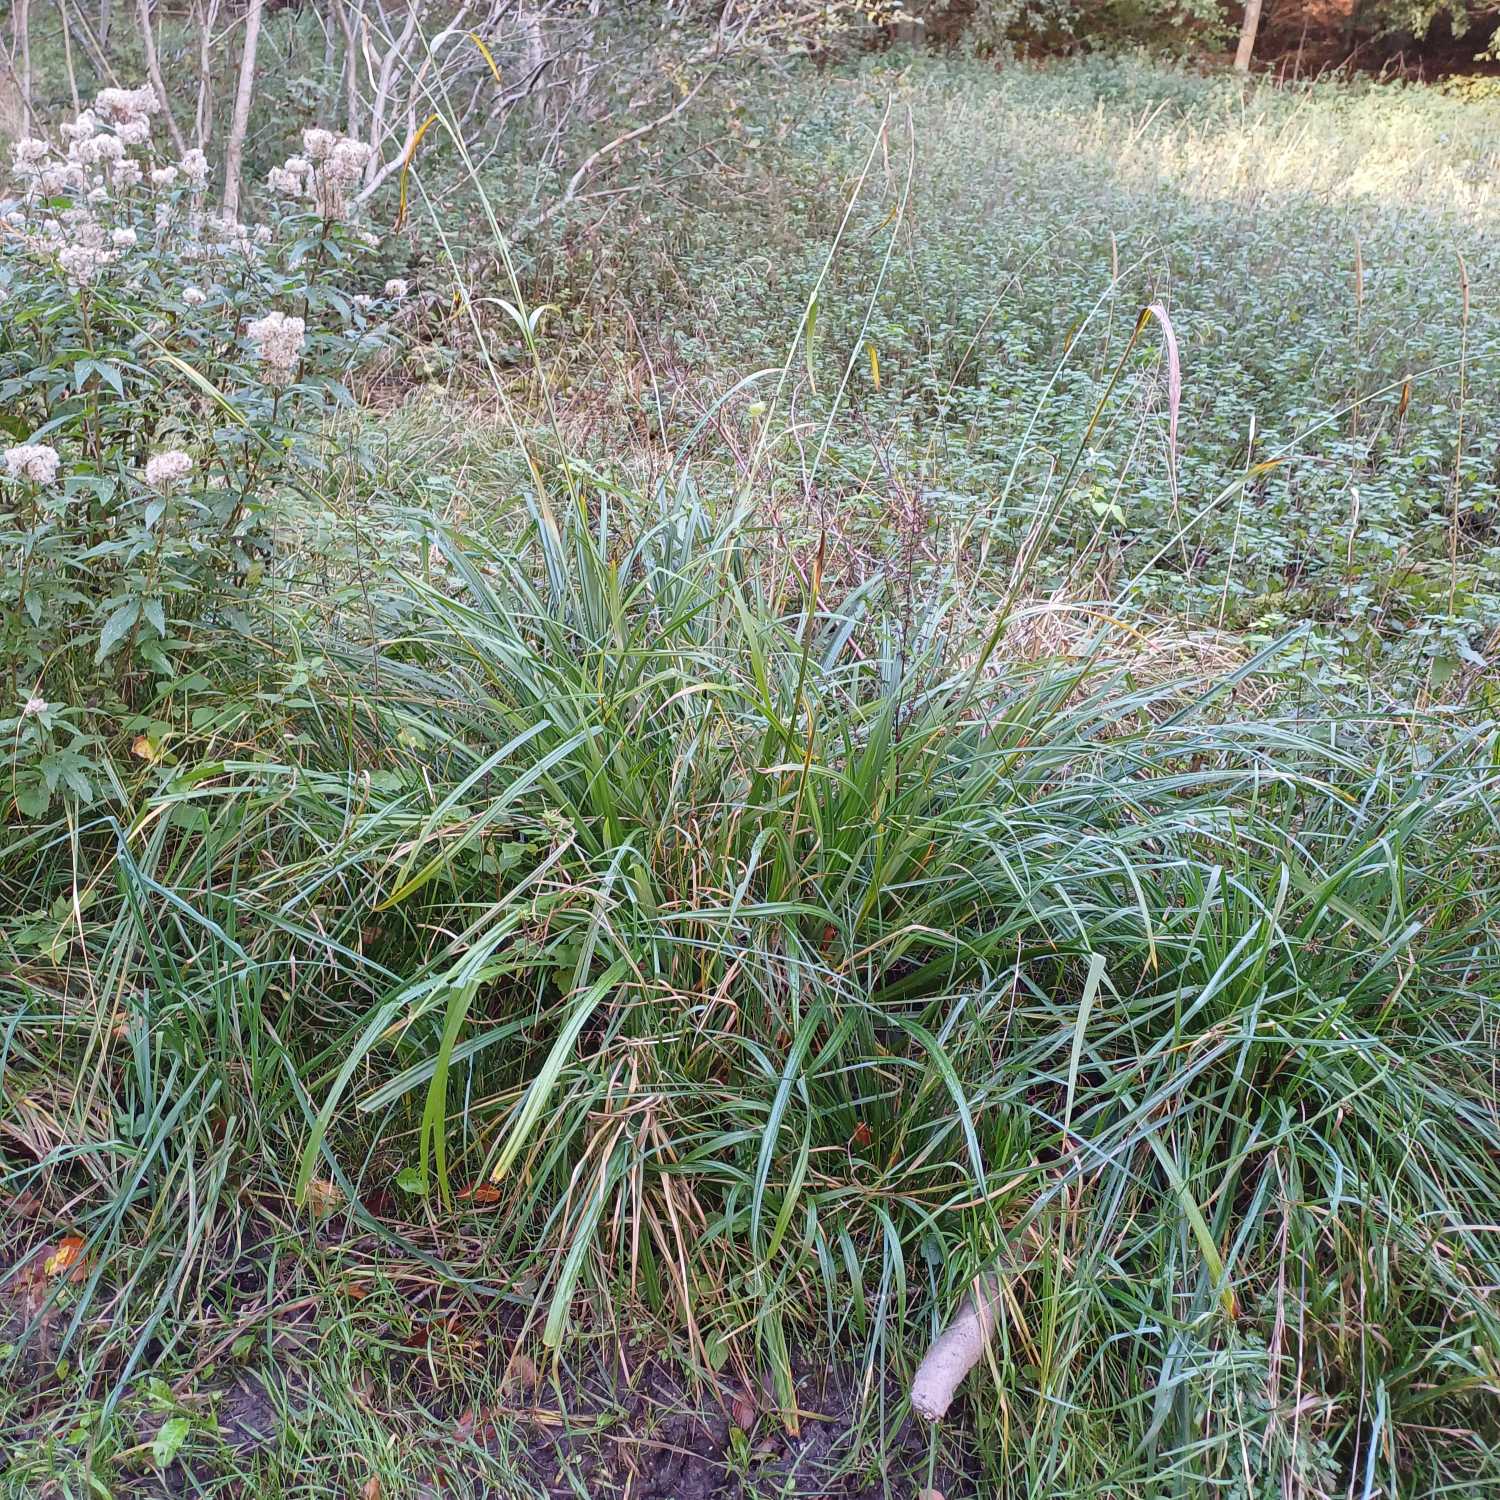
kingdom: Plantae
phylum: Tracheophyta
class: Liliopsida
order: Poales
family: Cyperaceae
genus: Carex
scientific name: Carex pendula
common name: Kæmpe-star
